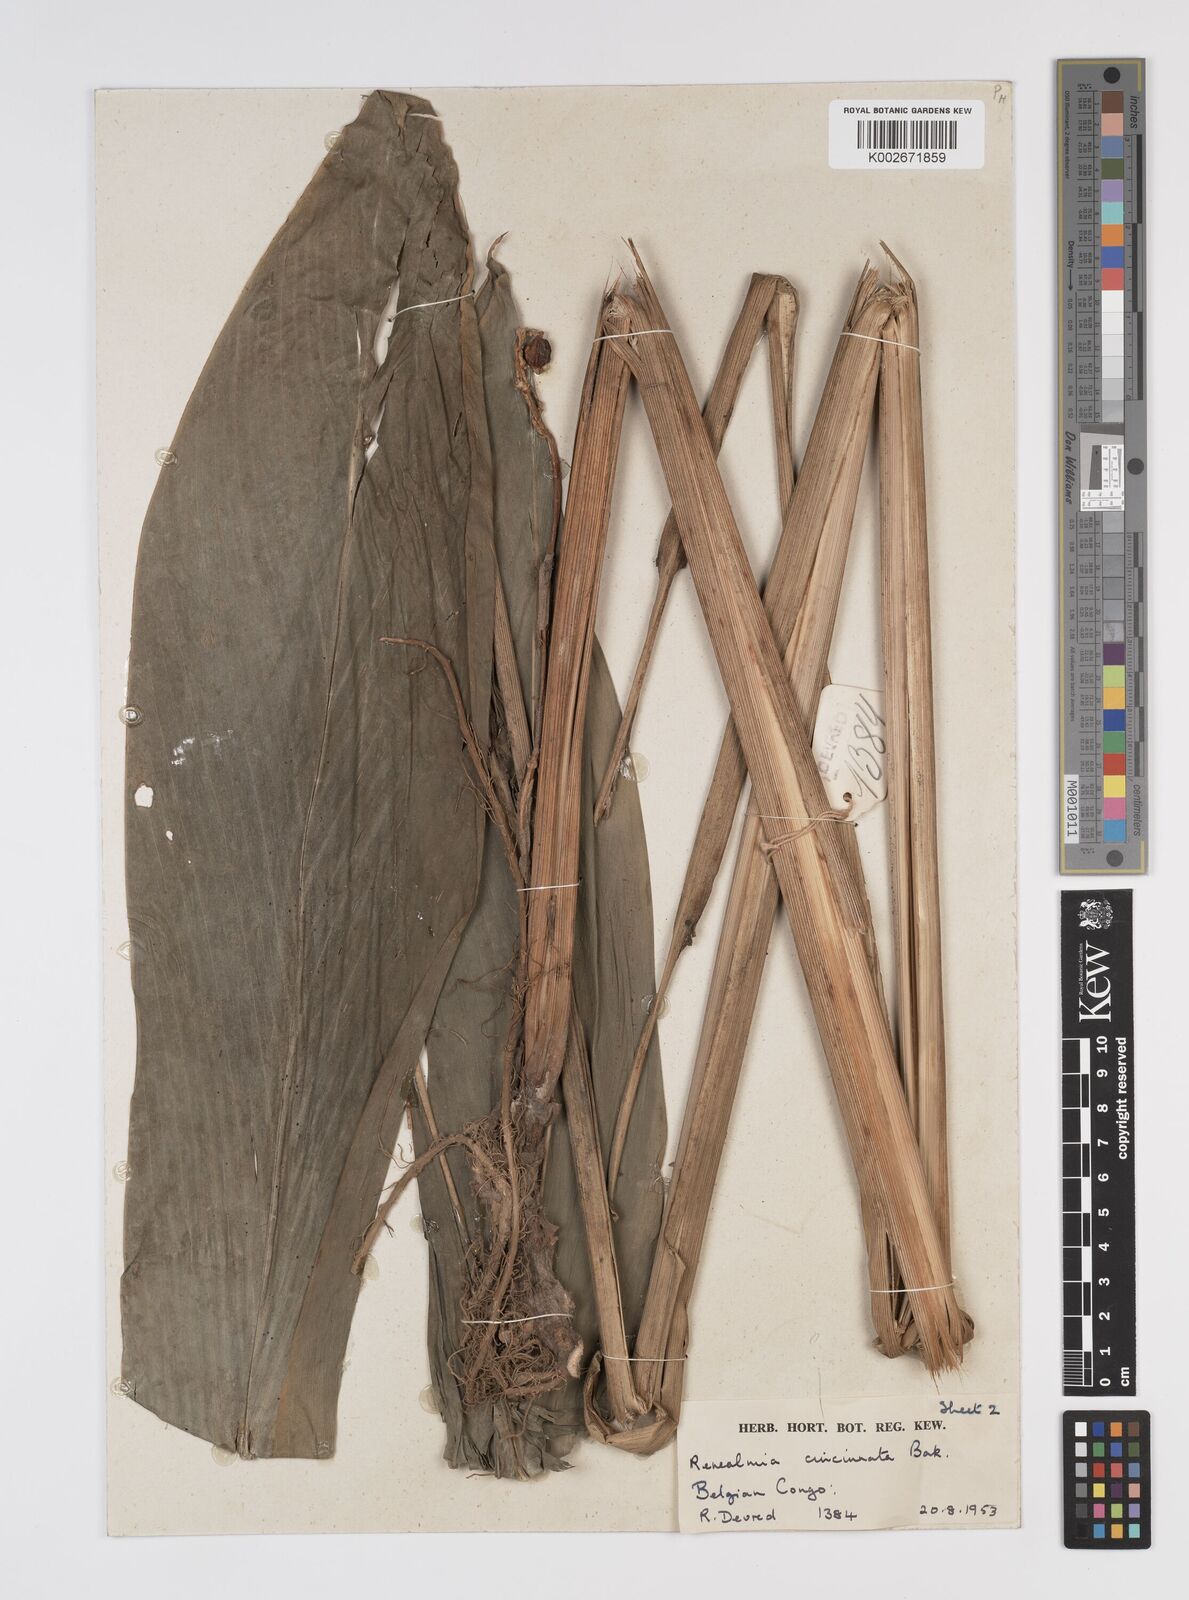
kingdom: Plantae
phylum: Tracheophyta
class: Liliopsida
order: Zingiberales
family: Zingiberaceae
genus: Renealmia
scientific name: Renealmia cincinnata
